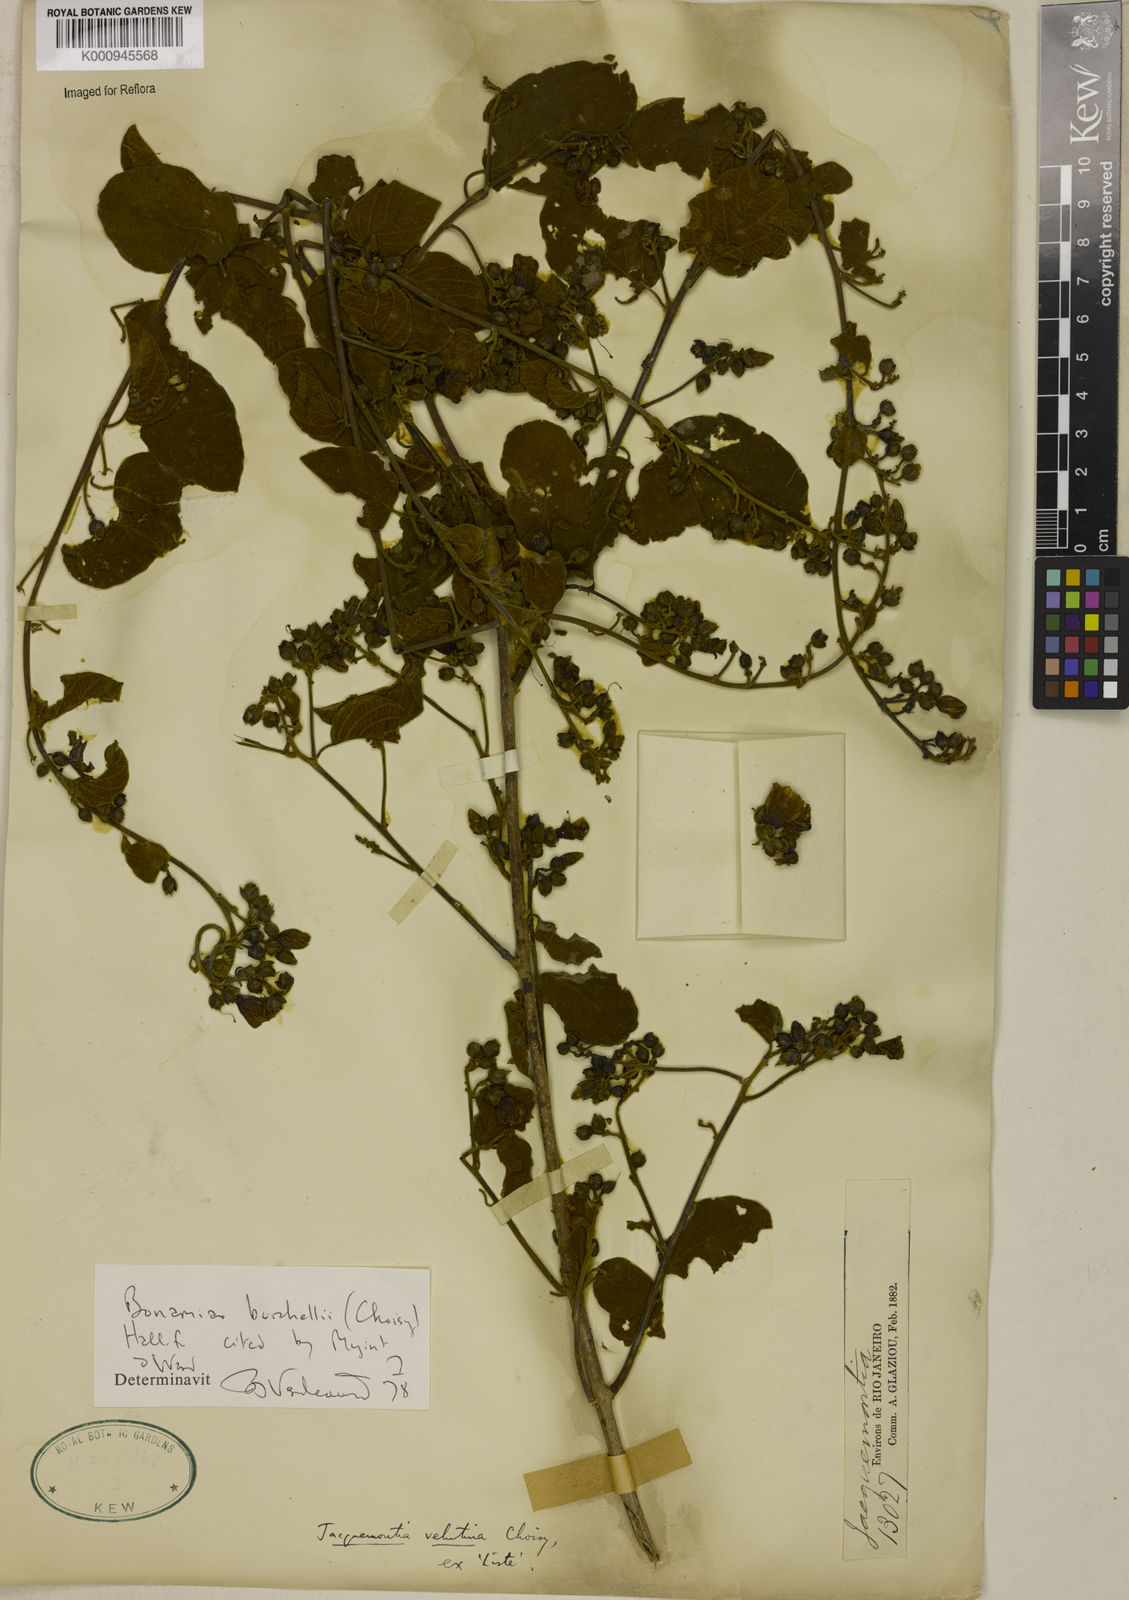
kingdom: Plantae
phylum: Tracheophyta
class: Magnoliopsida
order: Solanales
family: Convolvulaceae
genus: Bonamia
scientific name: Bonamia agrostopolis
